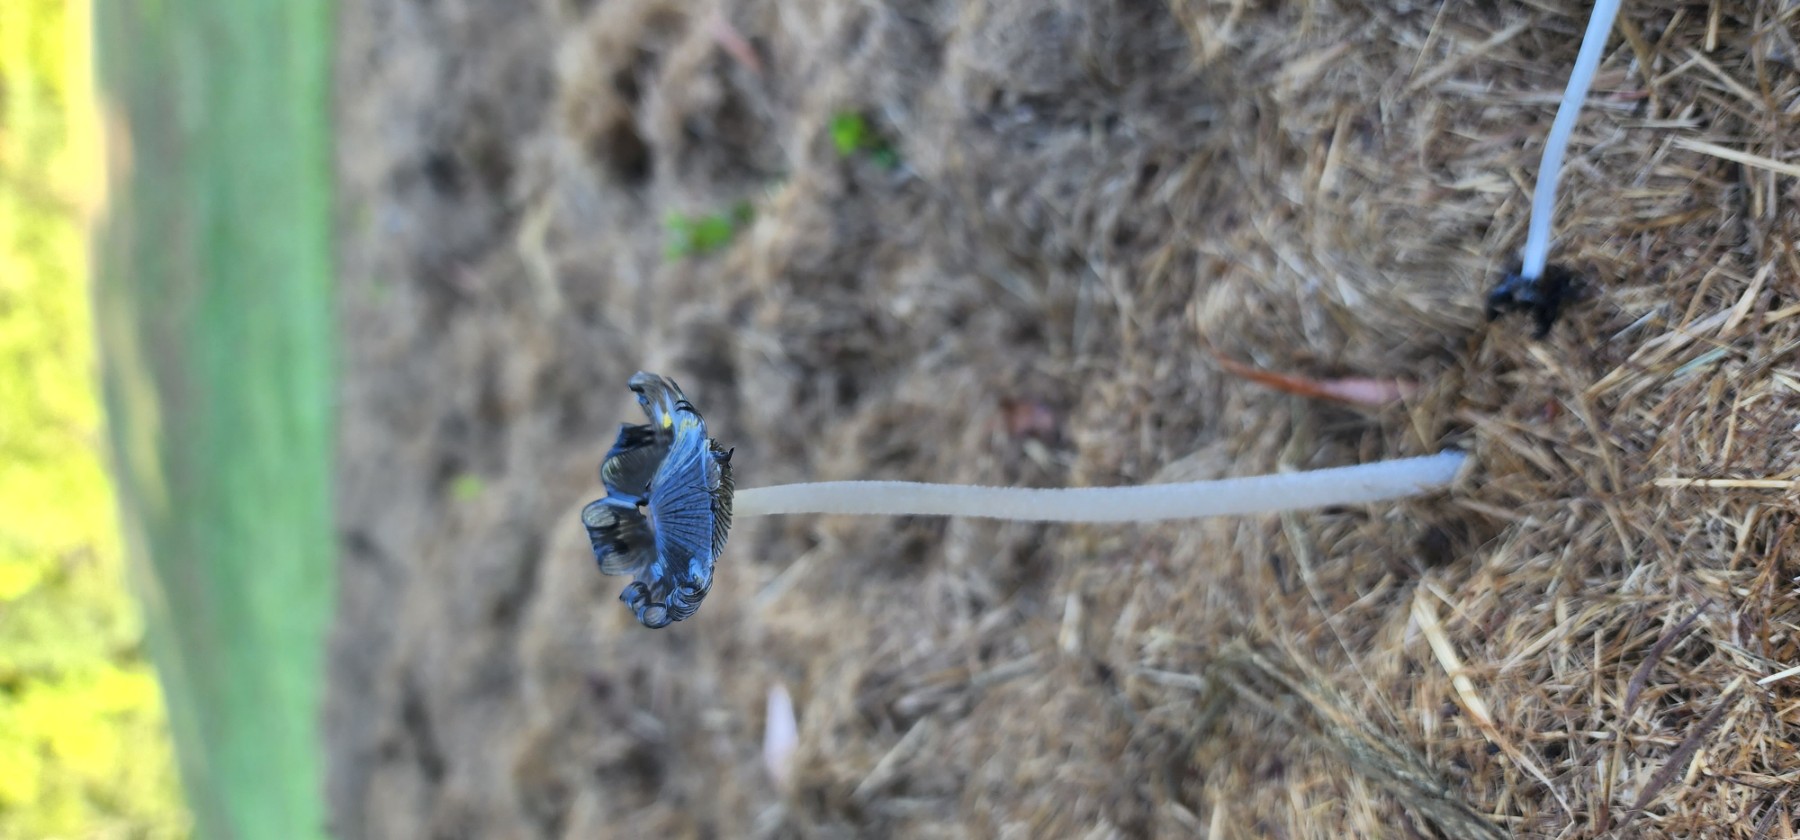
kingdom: Fungi
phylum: Basidiomycota
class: Agaricomycetes
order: Agaricales
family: Psathyrellaceae
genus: Coprinopsis
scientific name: Coprinopsis
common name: blækhat
